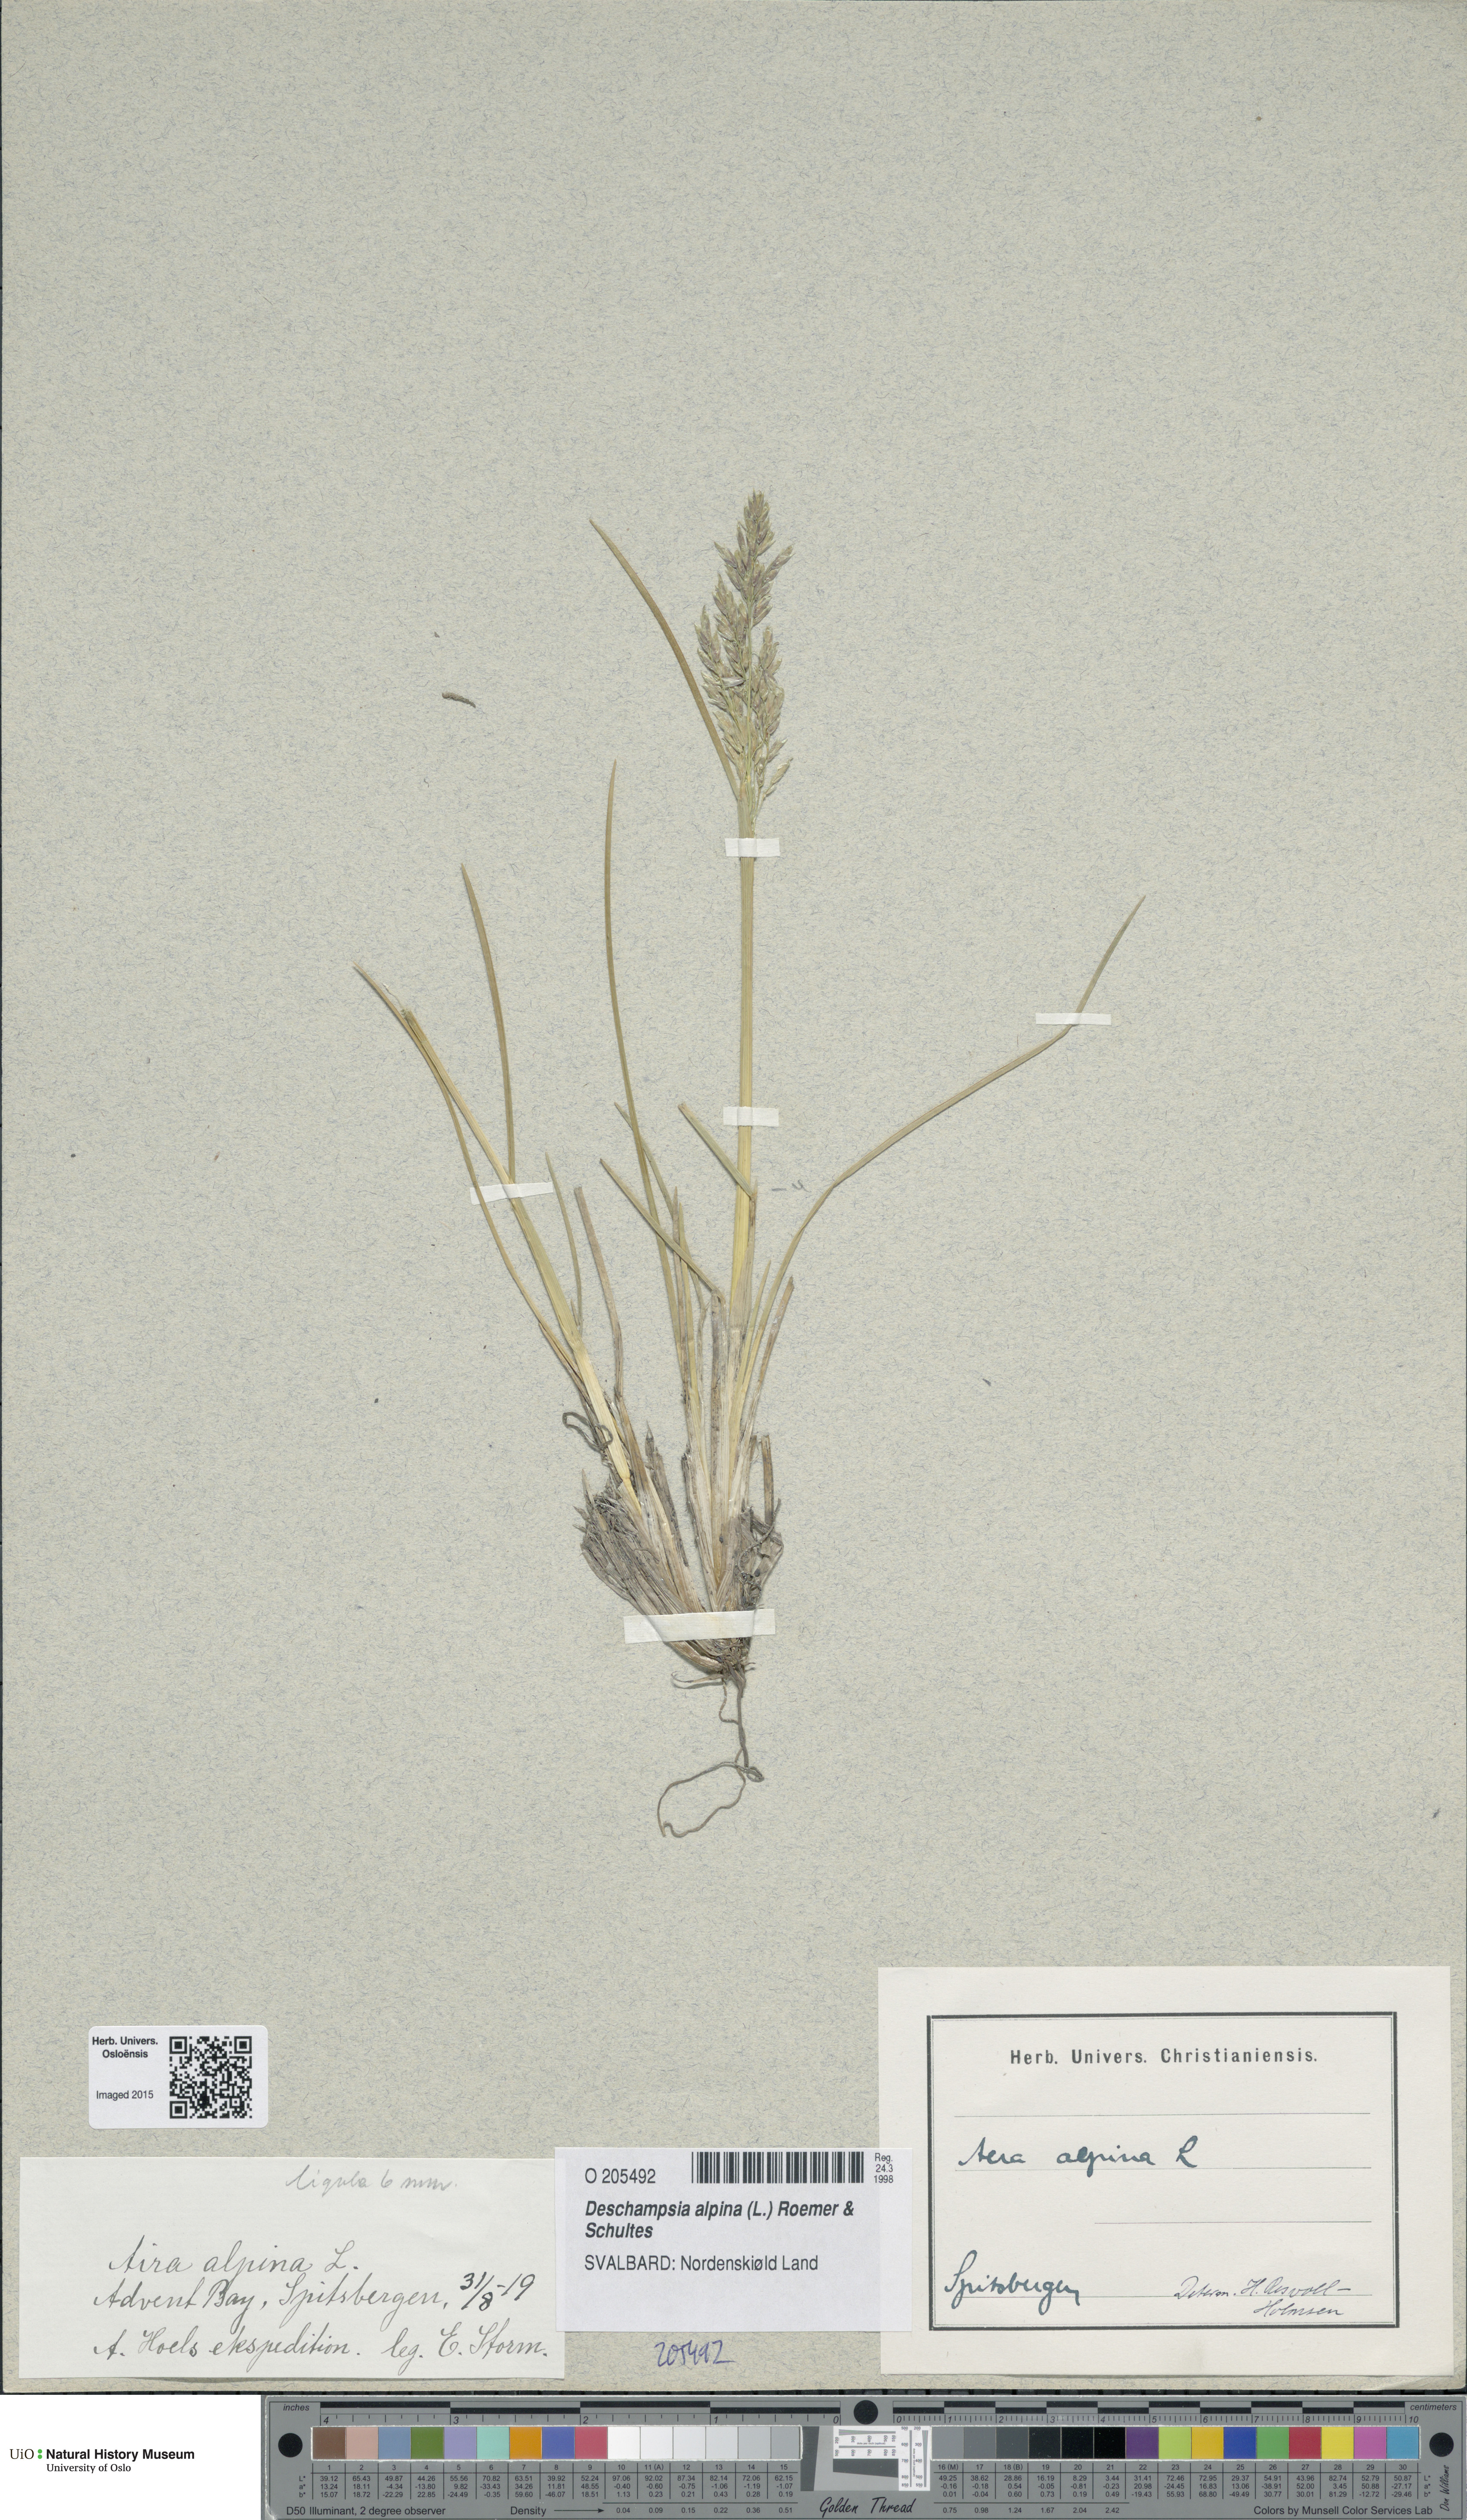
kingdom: Plantae
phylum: Tracheophyta
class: Liliopsida
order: Poales
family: Poaceae
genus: Deschampsia
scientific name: Deschampsia cespitosa
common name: Tufted hair-grass
